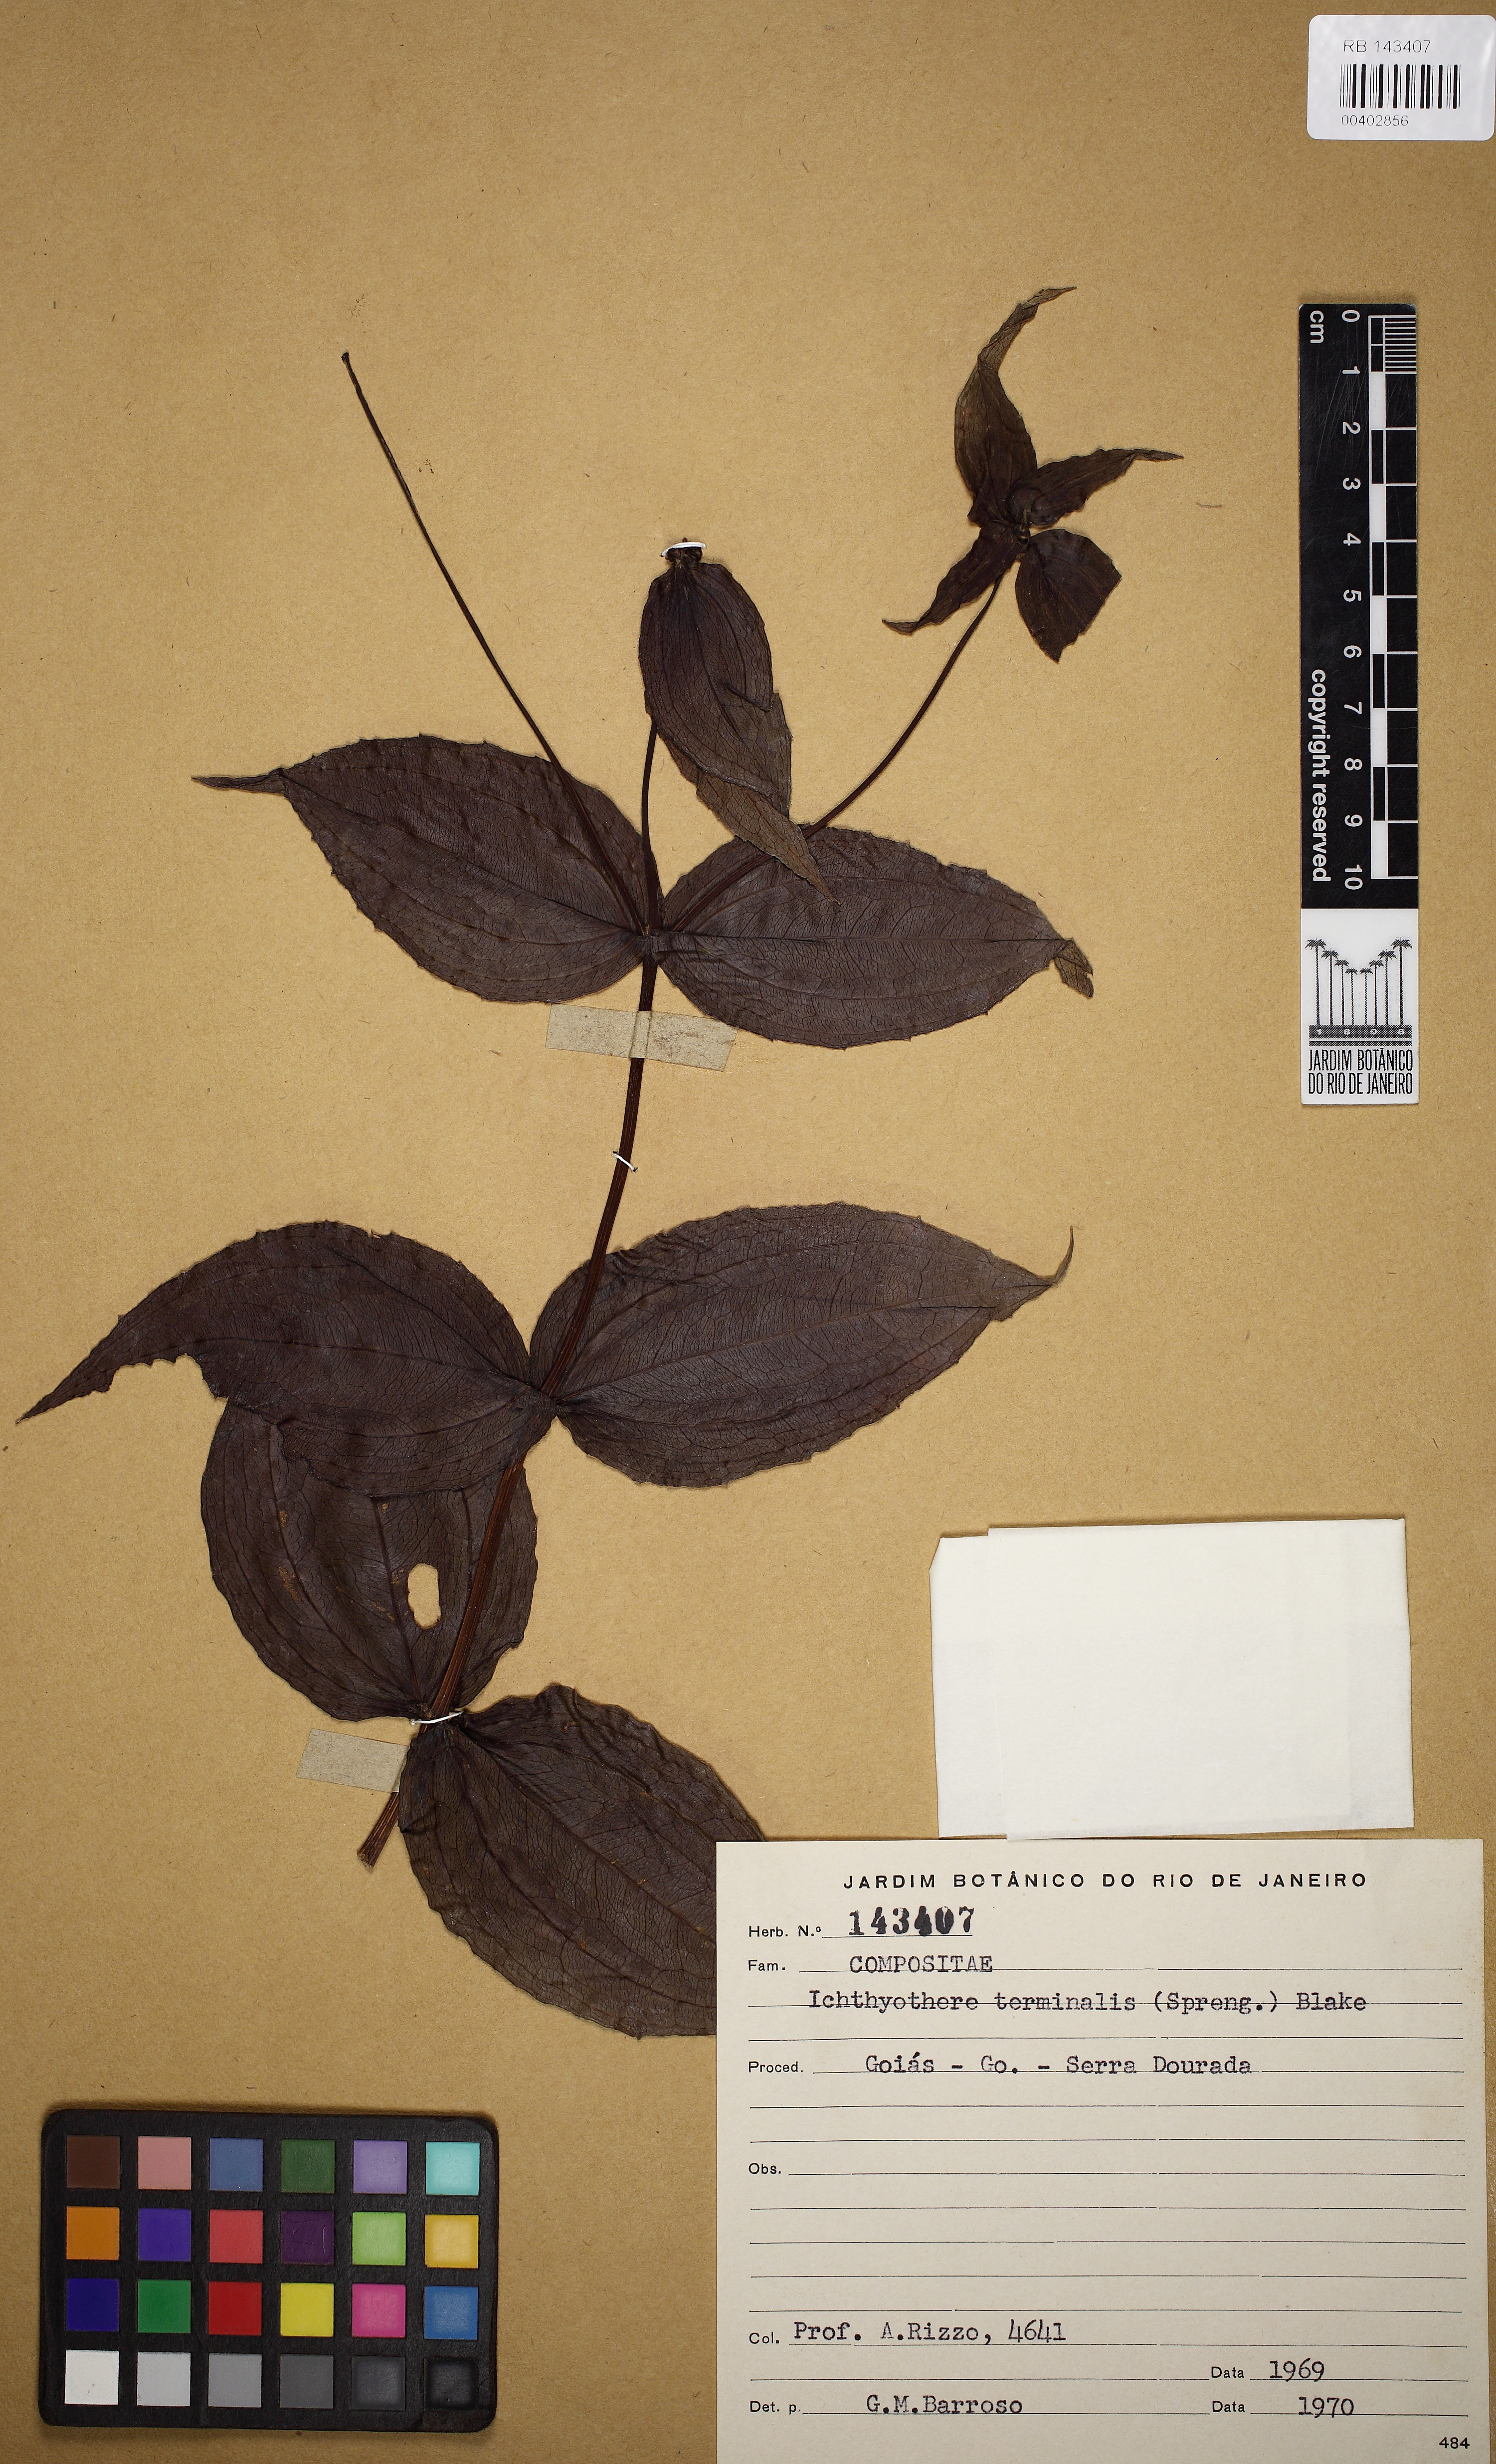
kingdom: Plantae
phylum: Tracheophyta
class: Magnoliopsida
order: Asterales
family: Asteraceae
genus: Ichthyothere
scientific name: Ichthyothere terminalis
